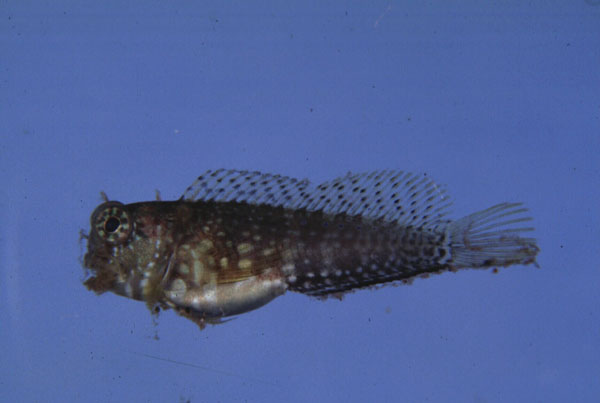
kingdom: Animalia
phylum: Chordata
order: Perciformes
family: Blenniidae
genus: Salarias
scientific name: Salarias fasciatus
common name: Jewelled blenny
